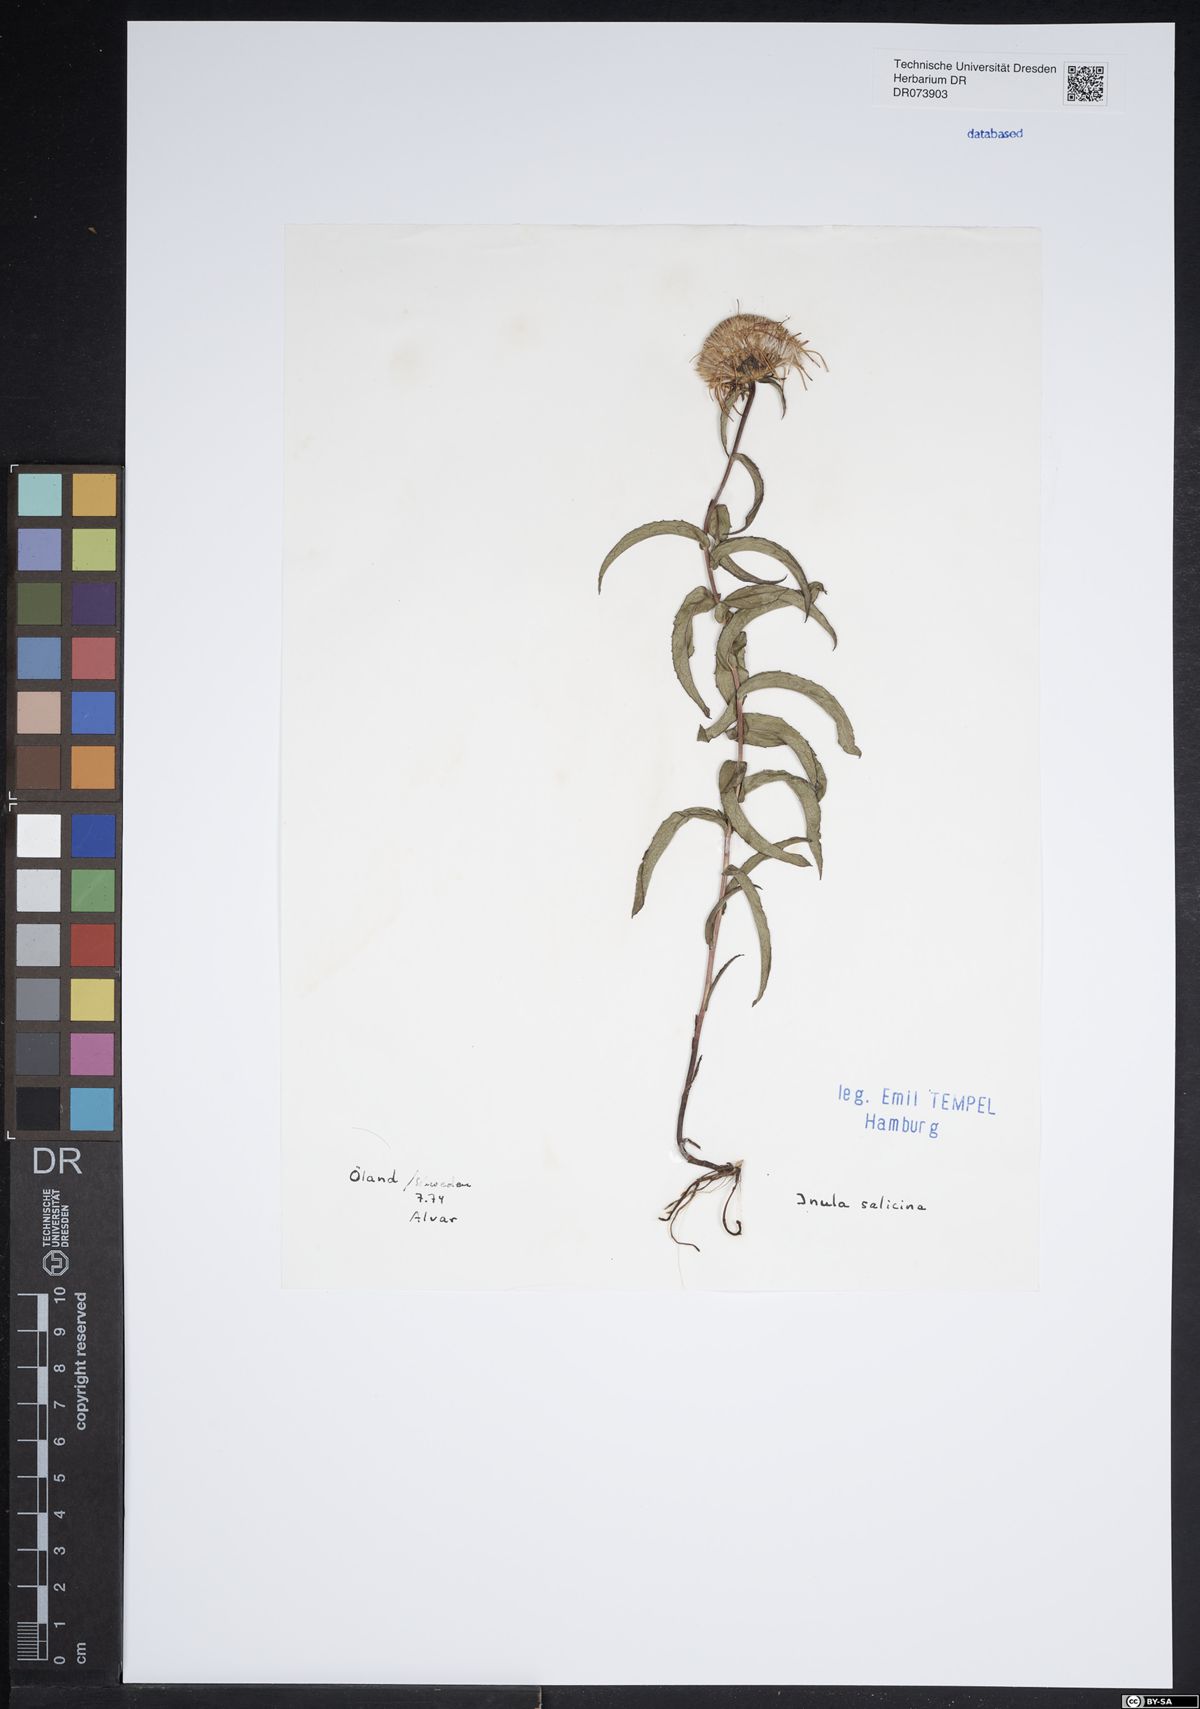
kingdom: Plantae
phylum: Tracheophyta
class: Magnoliopsida
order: Asterales
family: Asteraceae
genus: Pentanema
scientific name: Pentanema salicinum
